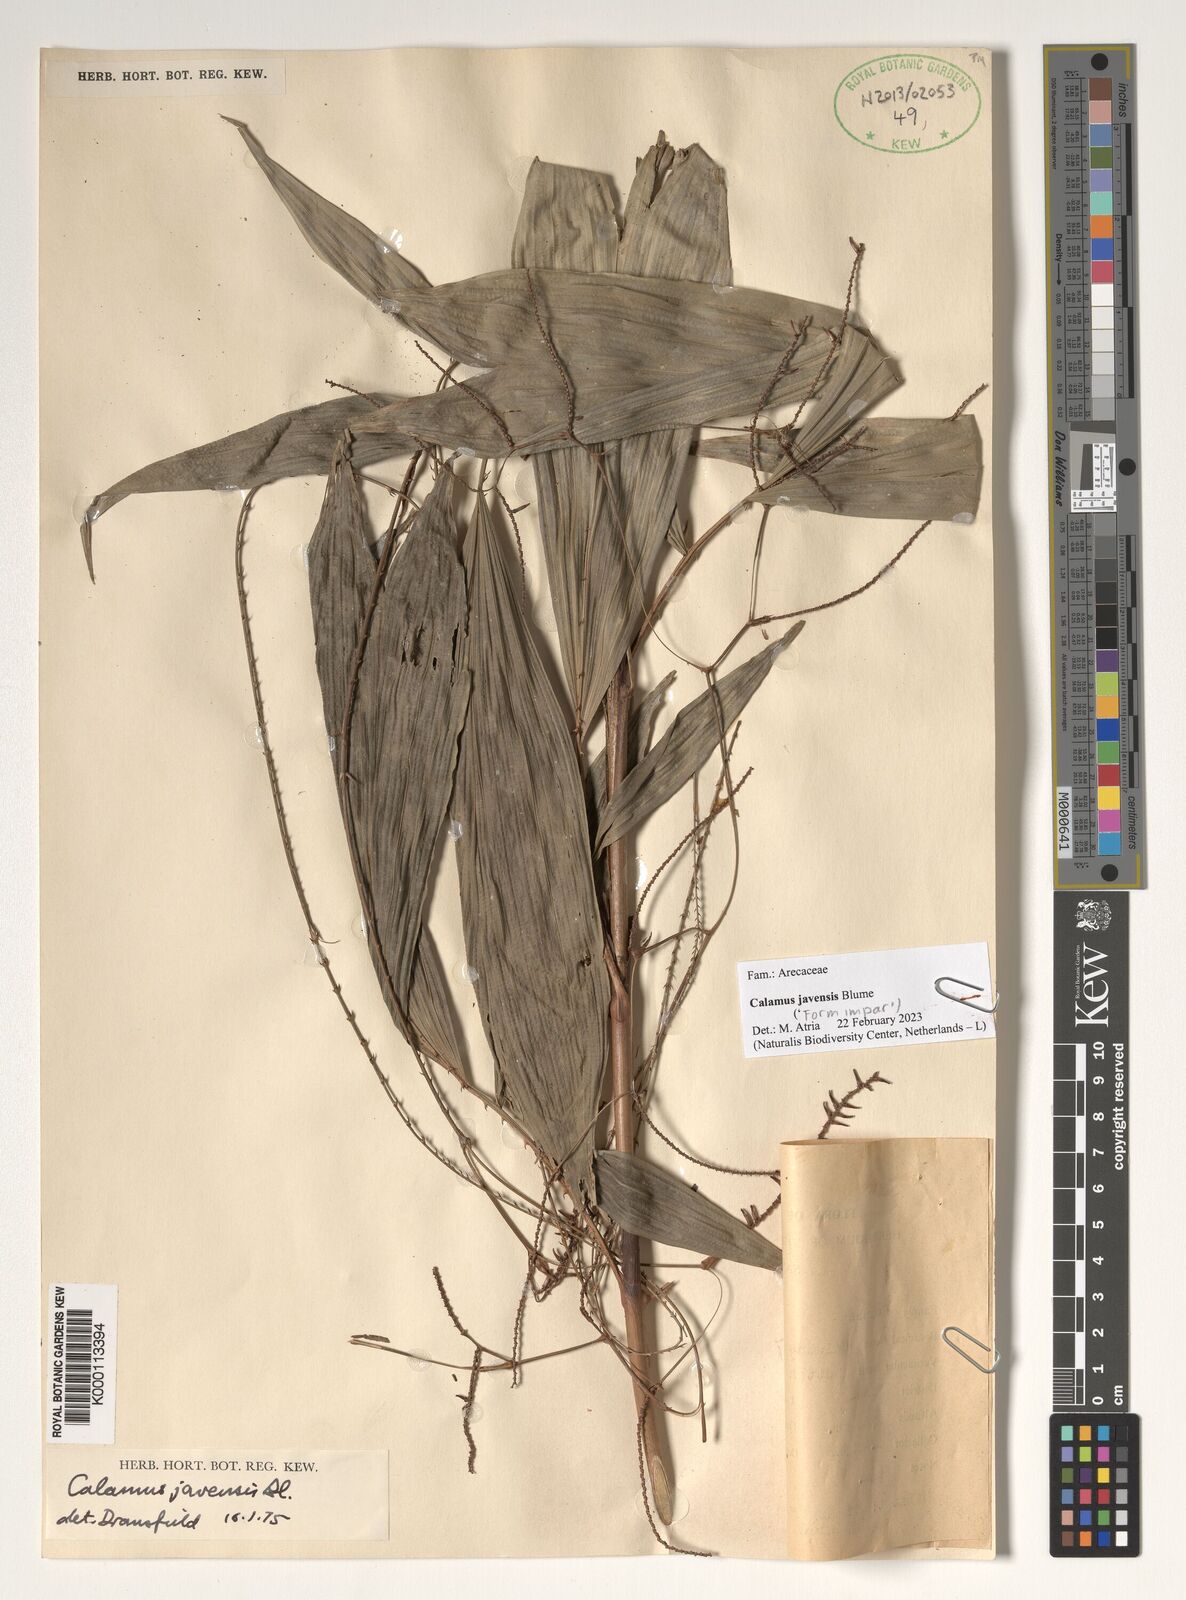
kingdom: Plantae
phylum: Tracheophyta
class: Liliopsida
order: Arecales
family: Arecaceae
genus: Calamus
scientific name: Calamus javensis
